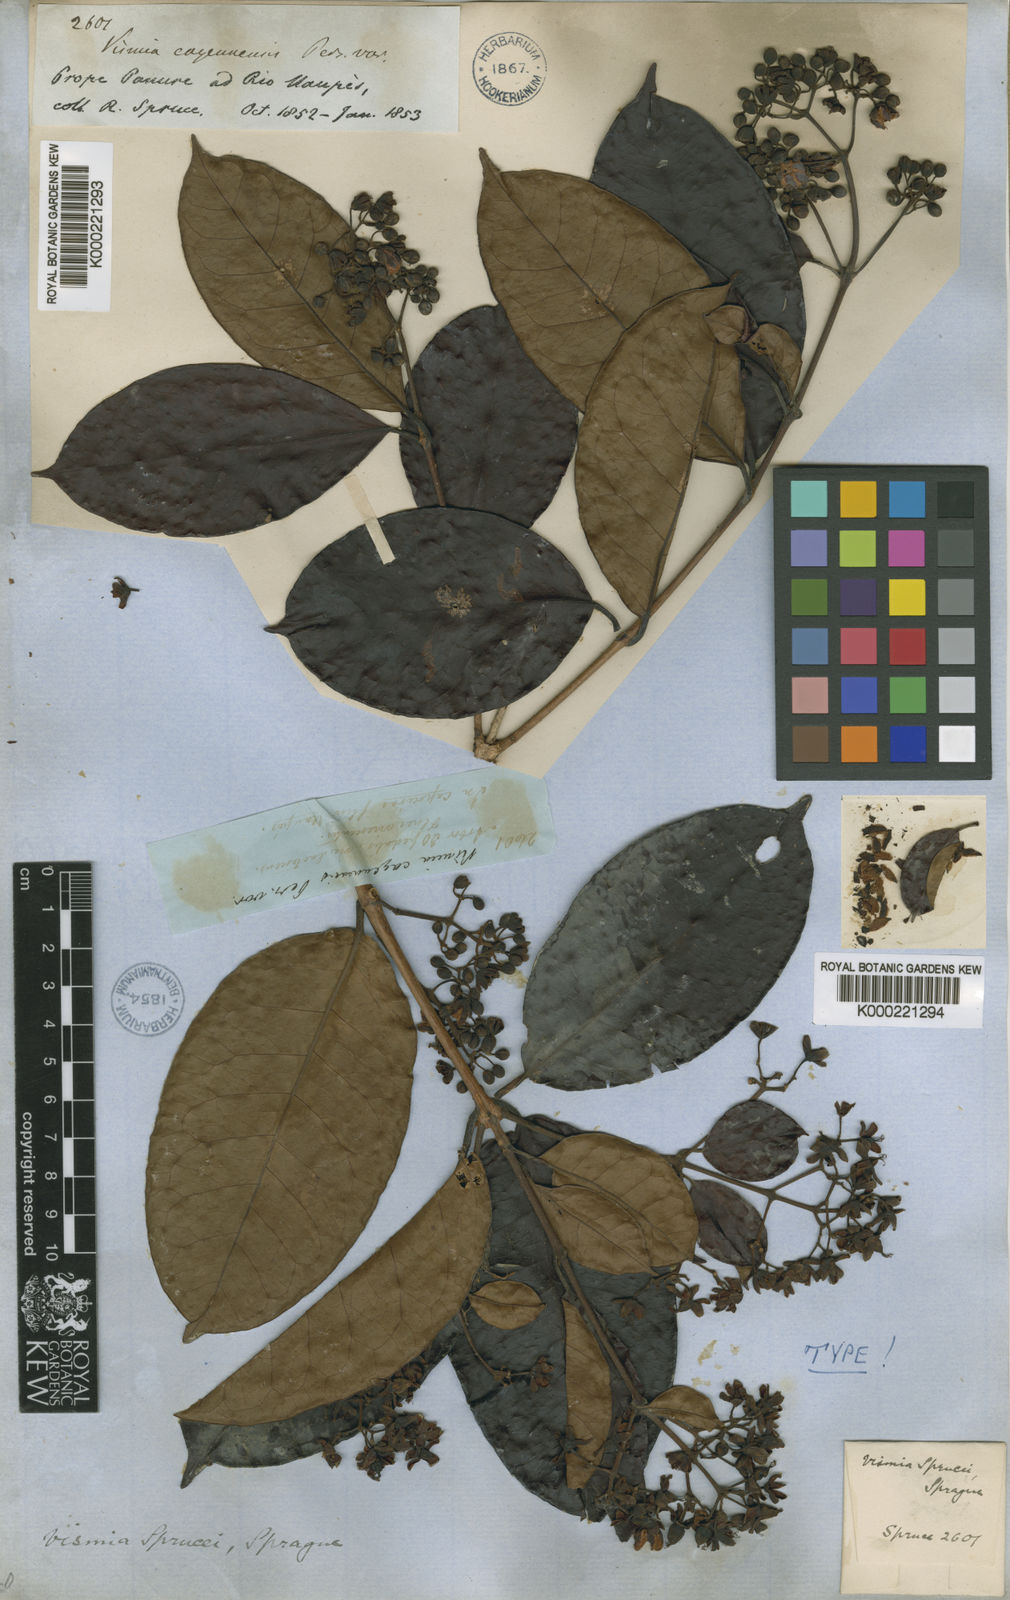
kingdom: Plantae
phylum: Tracheophyta
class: Magnoliopsida
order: Malpighiales
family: Hypericaceae
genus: Vismia
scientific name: Vismia sprucei
